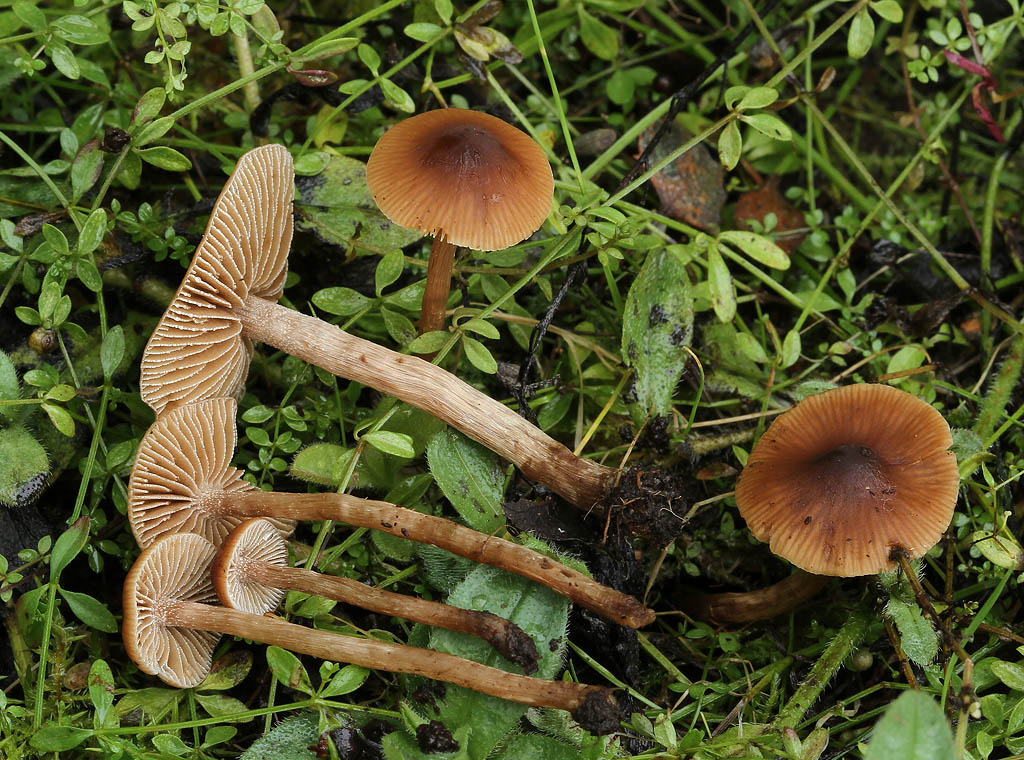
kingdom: Fungi
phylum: Basidiomycota
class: Agaricomycetes
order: Agaricales
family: Hymenogastraceae
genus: Naucoria
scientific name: Naucoria salicis
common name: pile-knaphat
